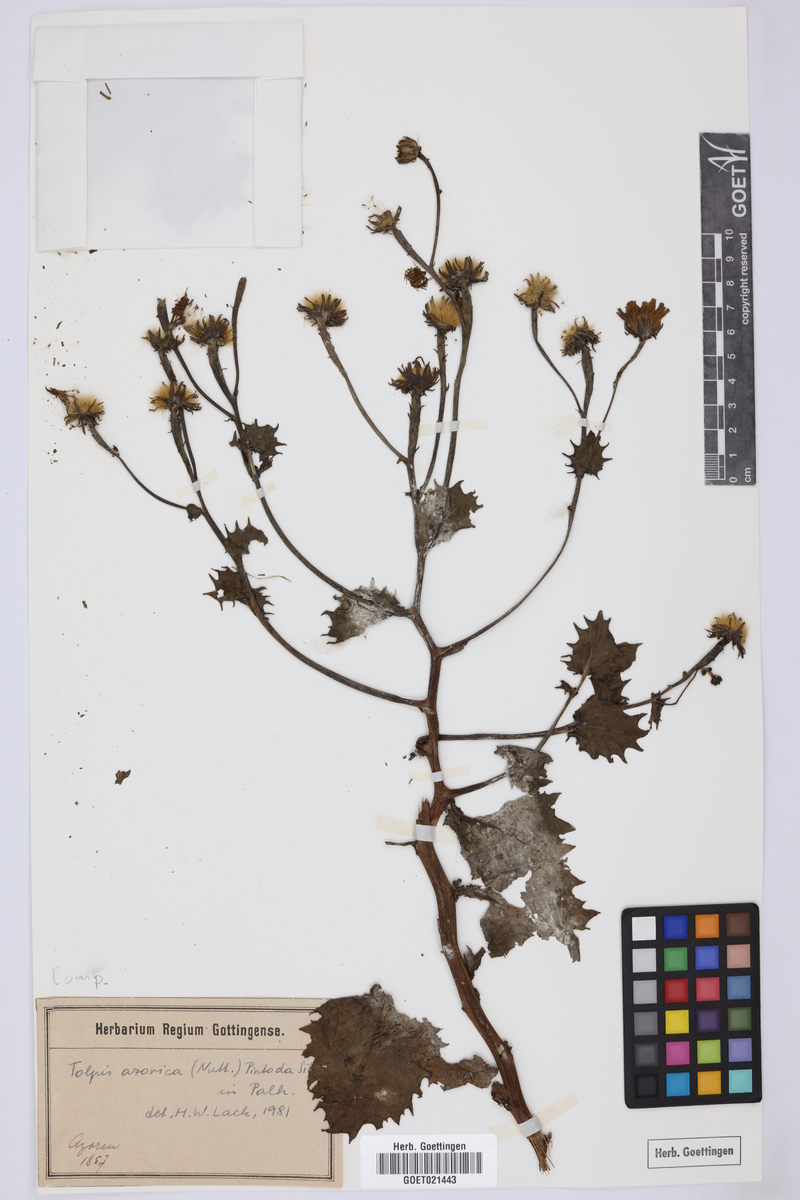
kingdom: Plantae
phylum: Tracheophyta
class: Magnoliopsida
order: Asterales
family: Asteraceae
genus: Tolpis
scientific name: Tolpis azorica
